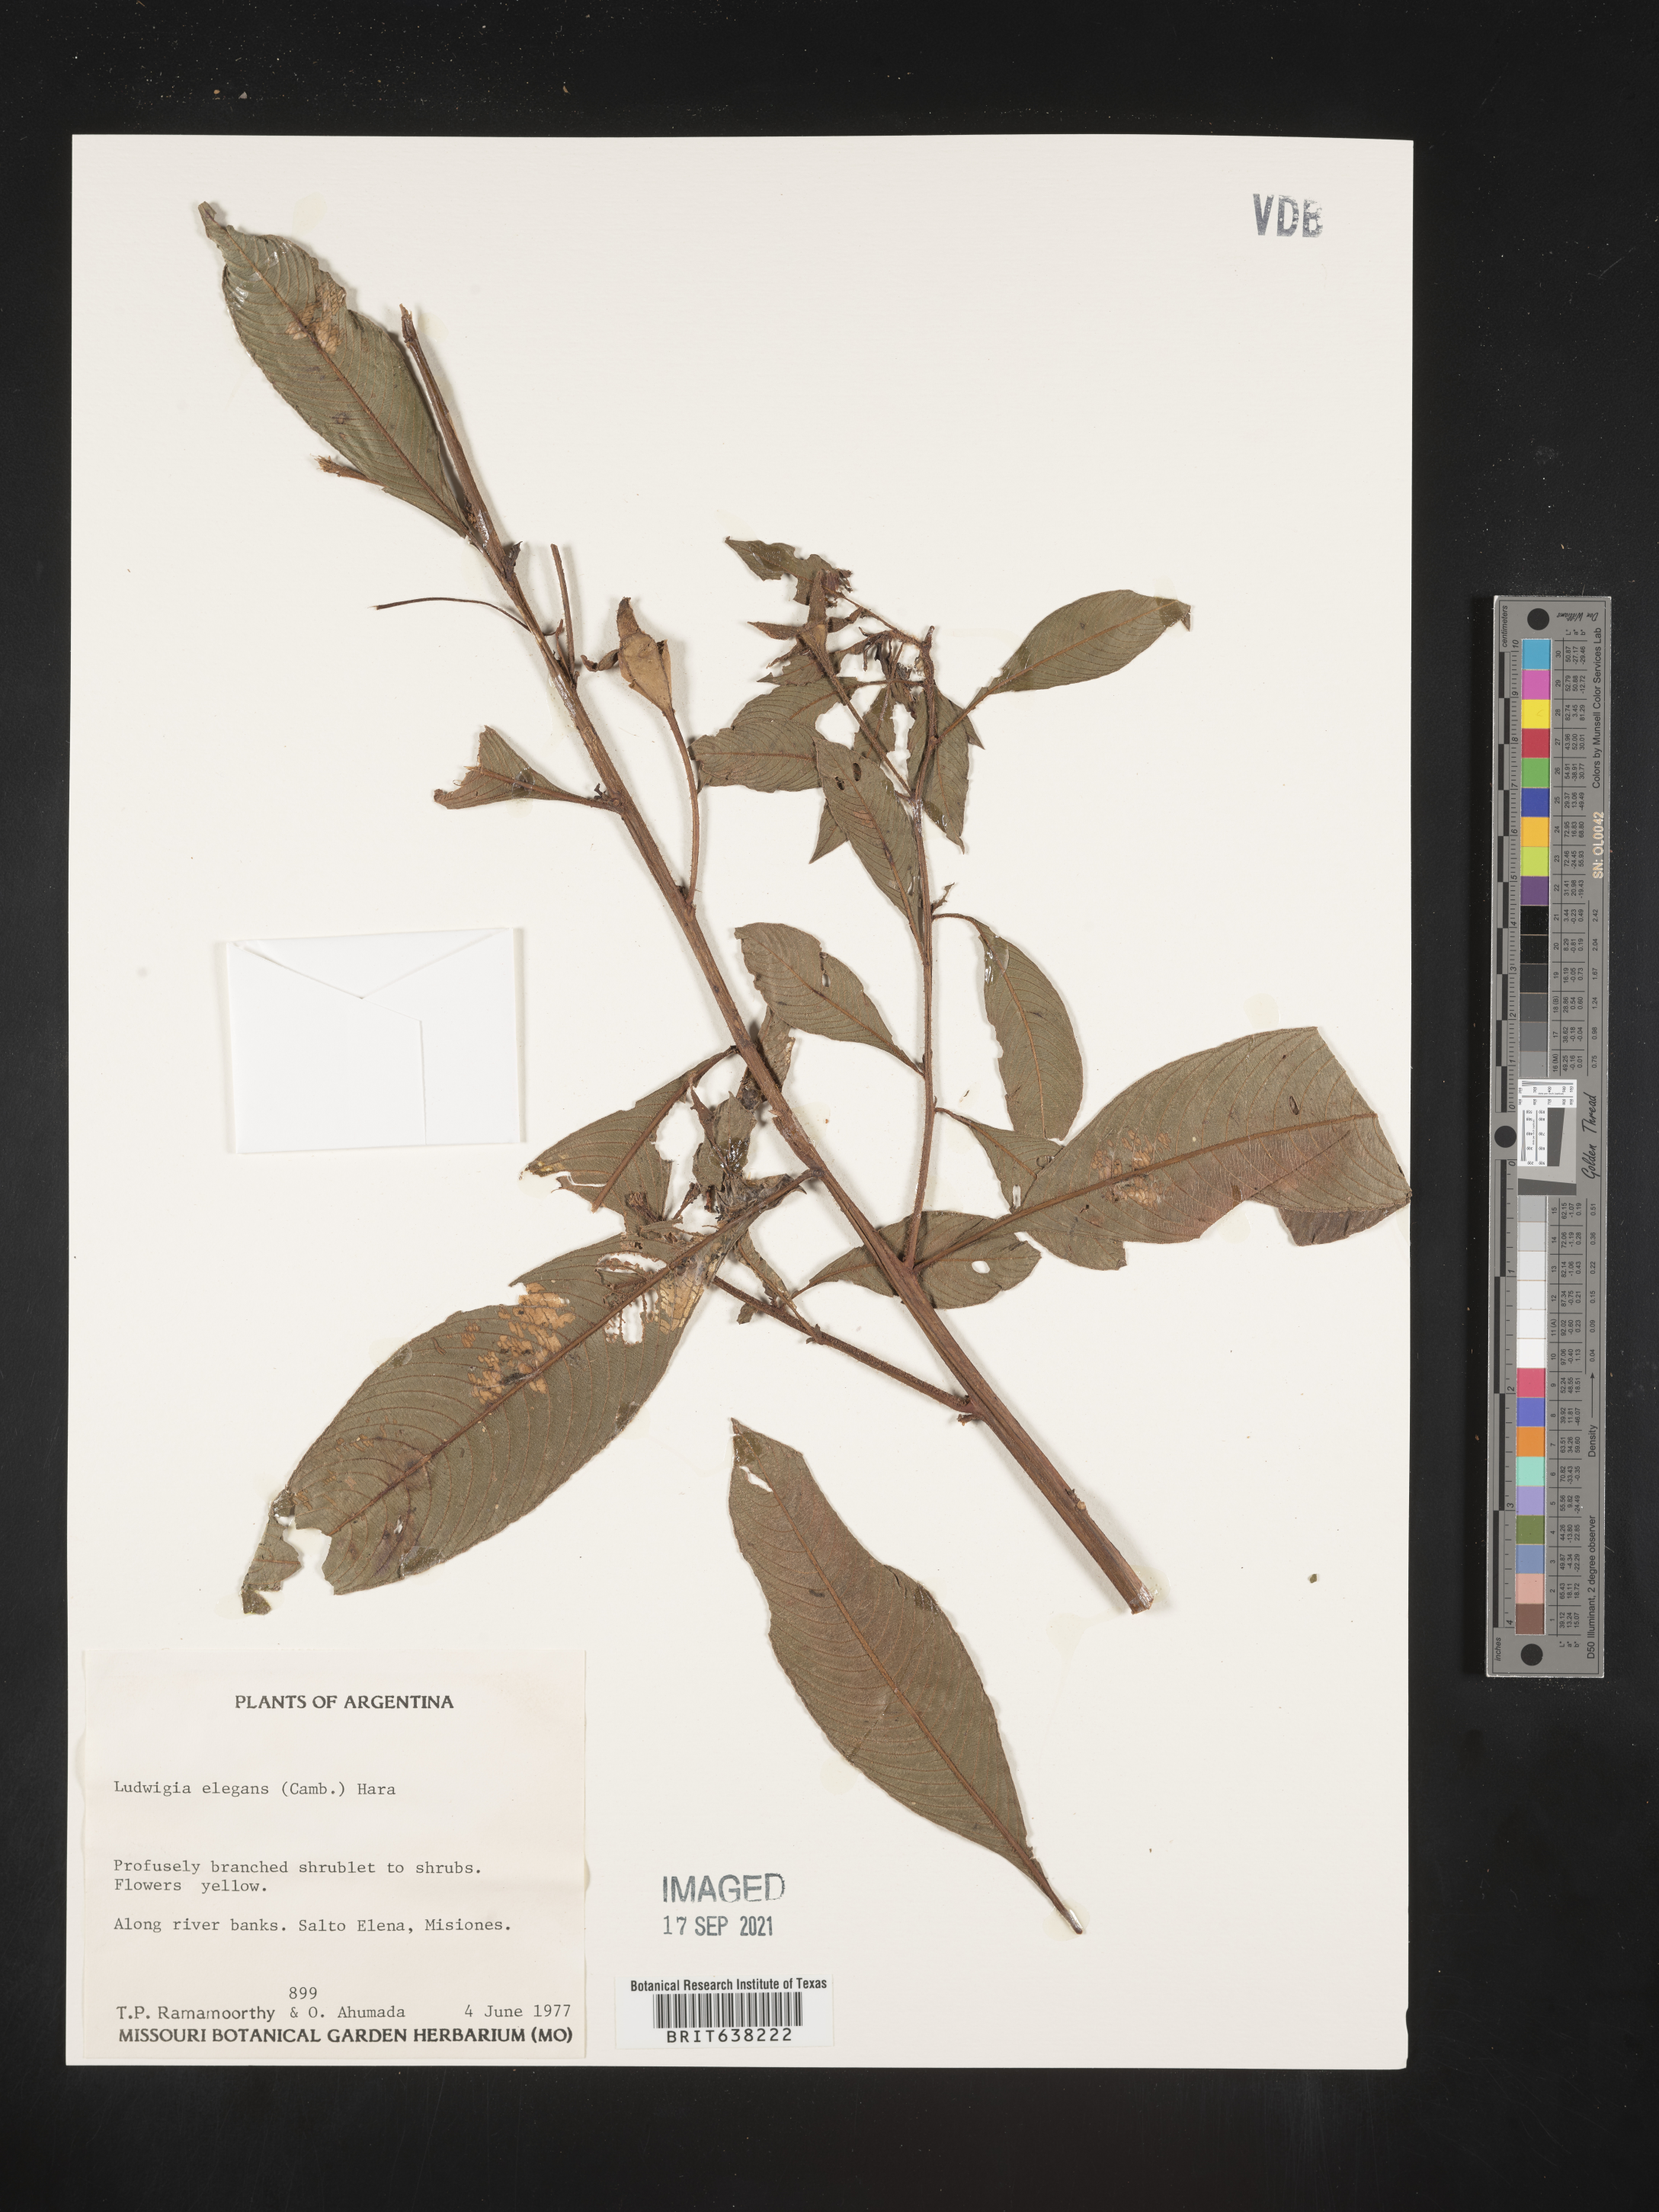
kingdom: Plantae
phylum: Tracheophyta
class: Magnoliopsida
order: Myrtales
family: Onagraceae
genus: Ludwigia
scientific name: Ludwigia
